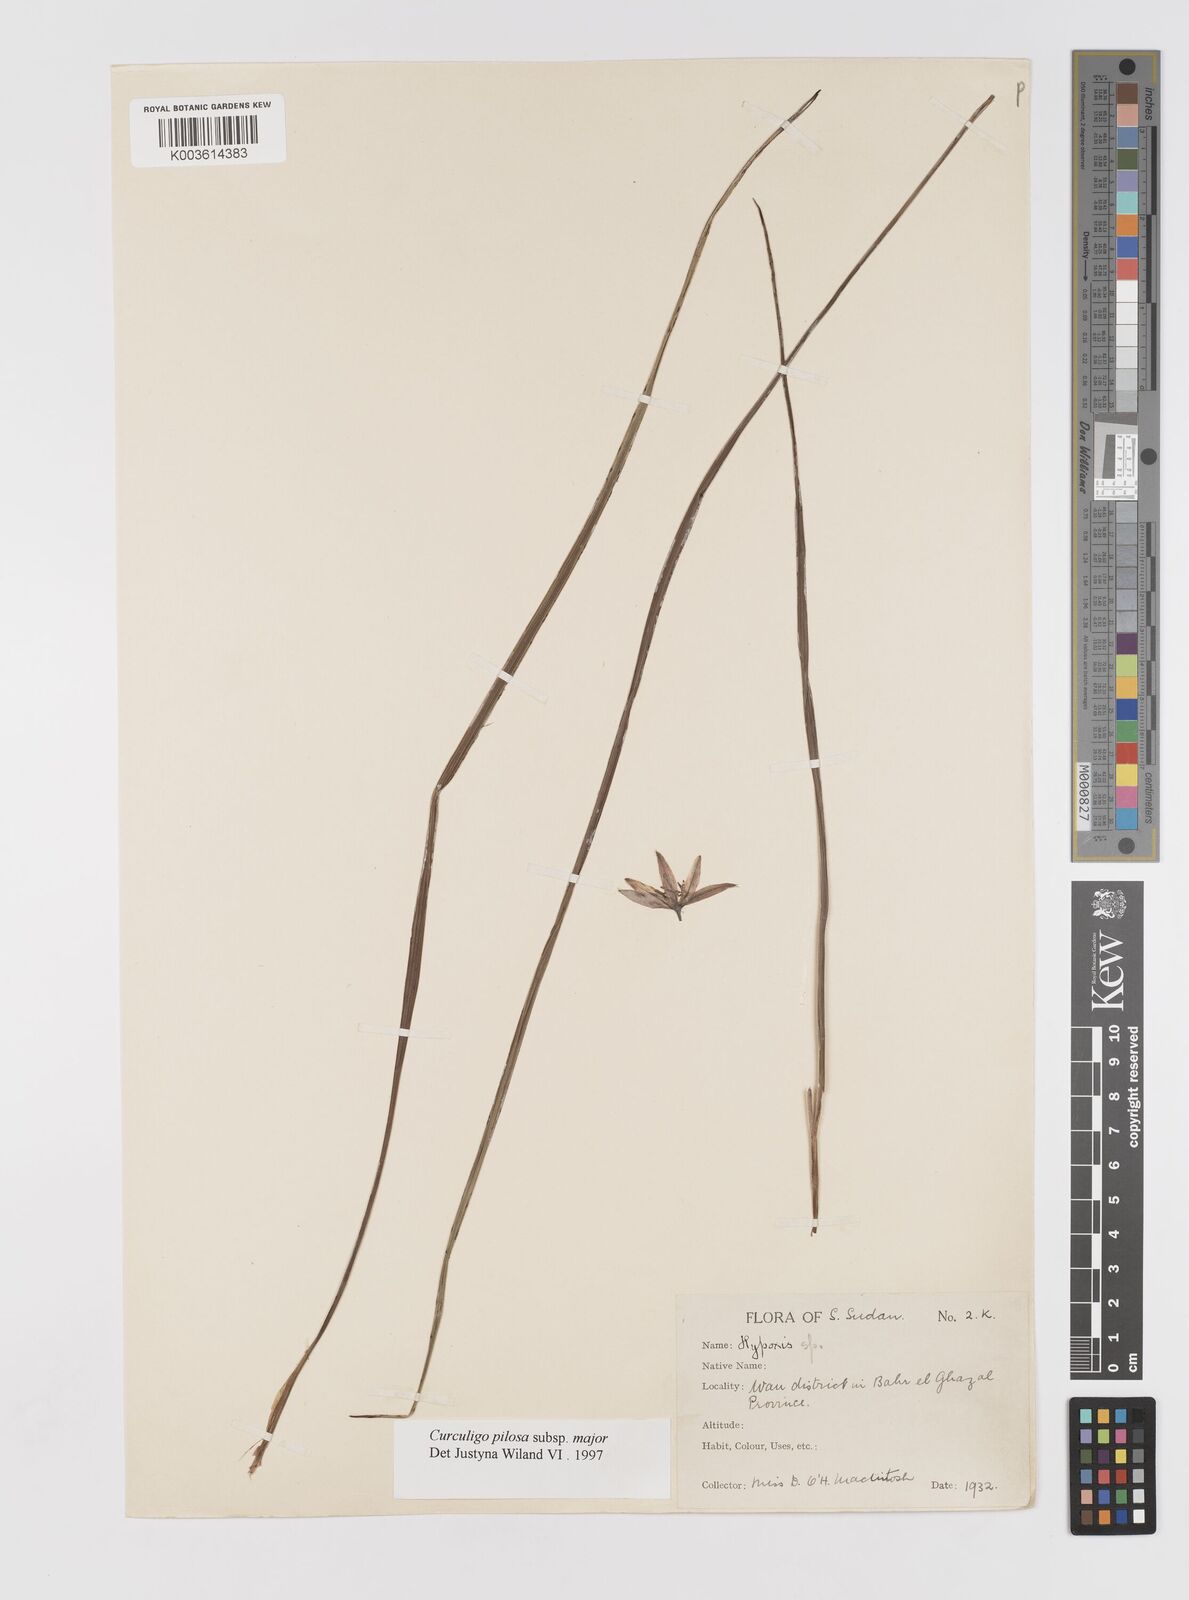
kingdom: Plantae
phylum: Tracheophyta
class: Liliopsida
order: Asparagales
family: Hypoxidaceae
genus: Curculigo
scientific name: Curculigo pilosa
